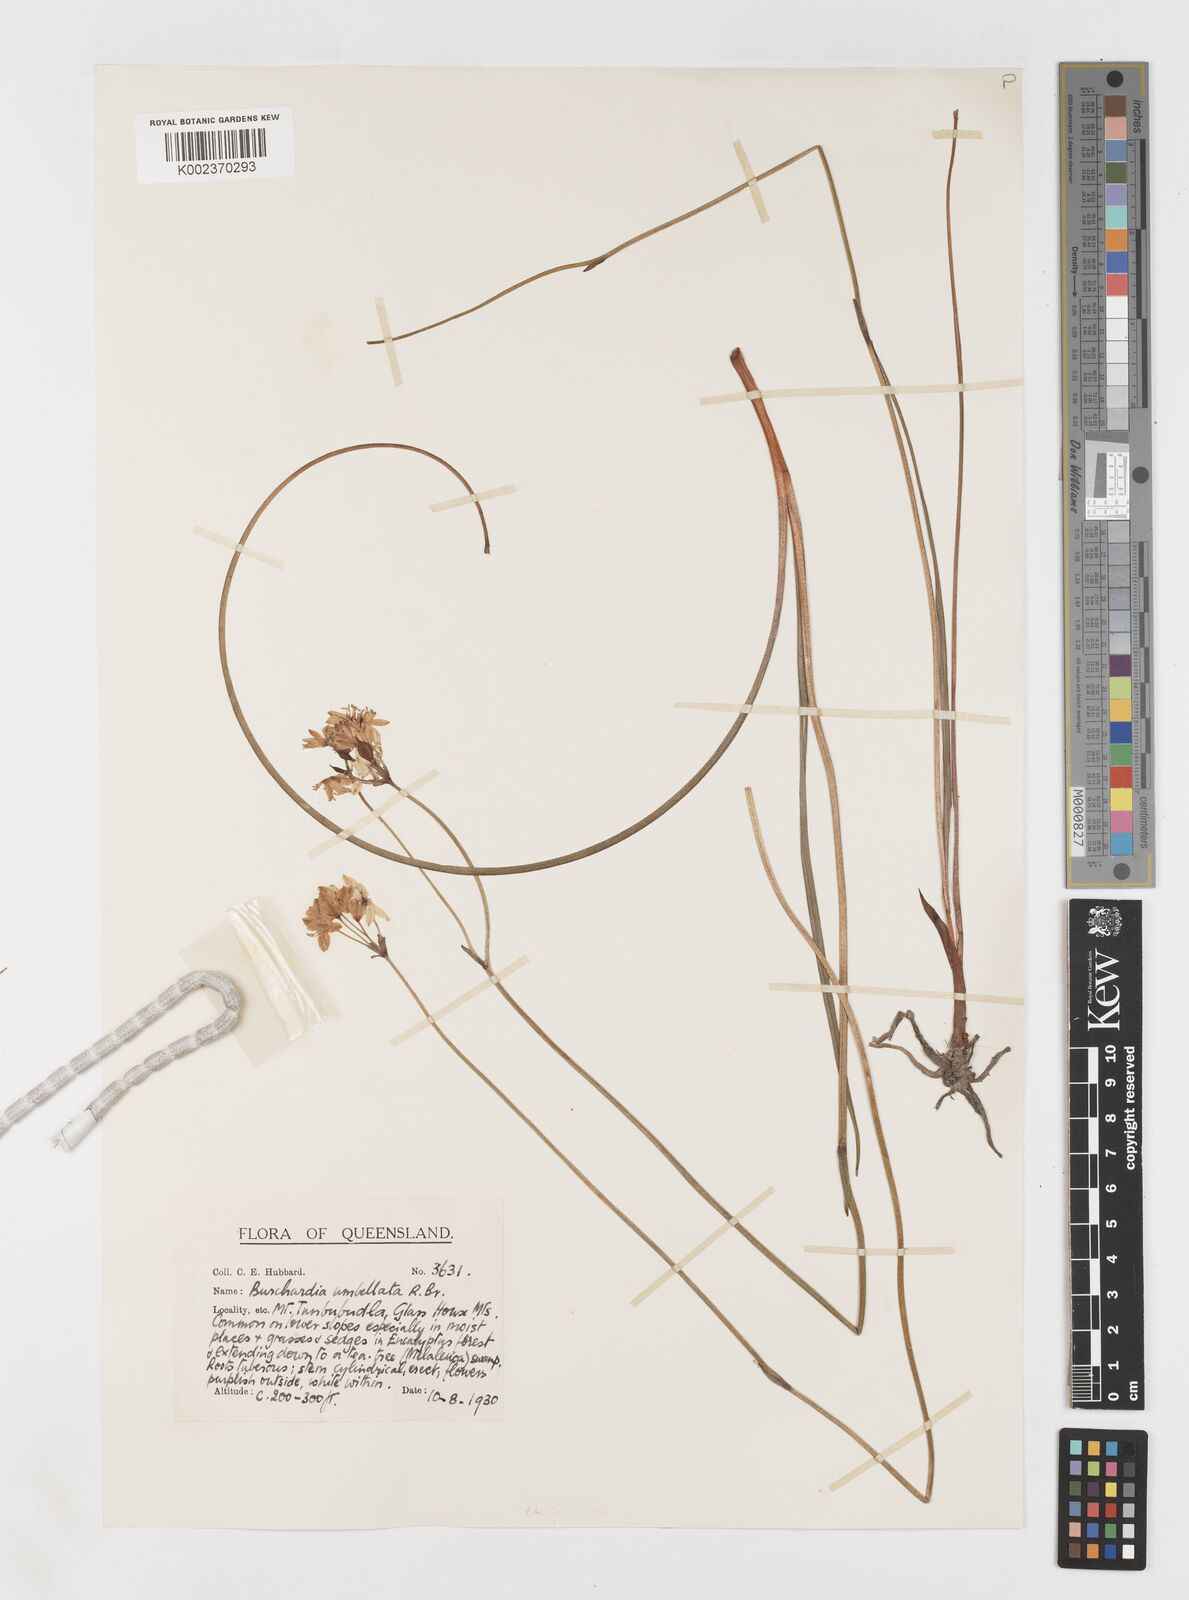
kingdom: Plantae
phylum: Tracheophyta
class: Liliopsida
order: Liliales
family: Colchicaceae
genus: Burchardia
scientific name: Burchardia umbellata
